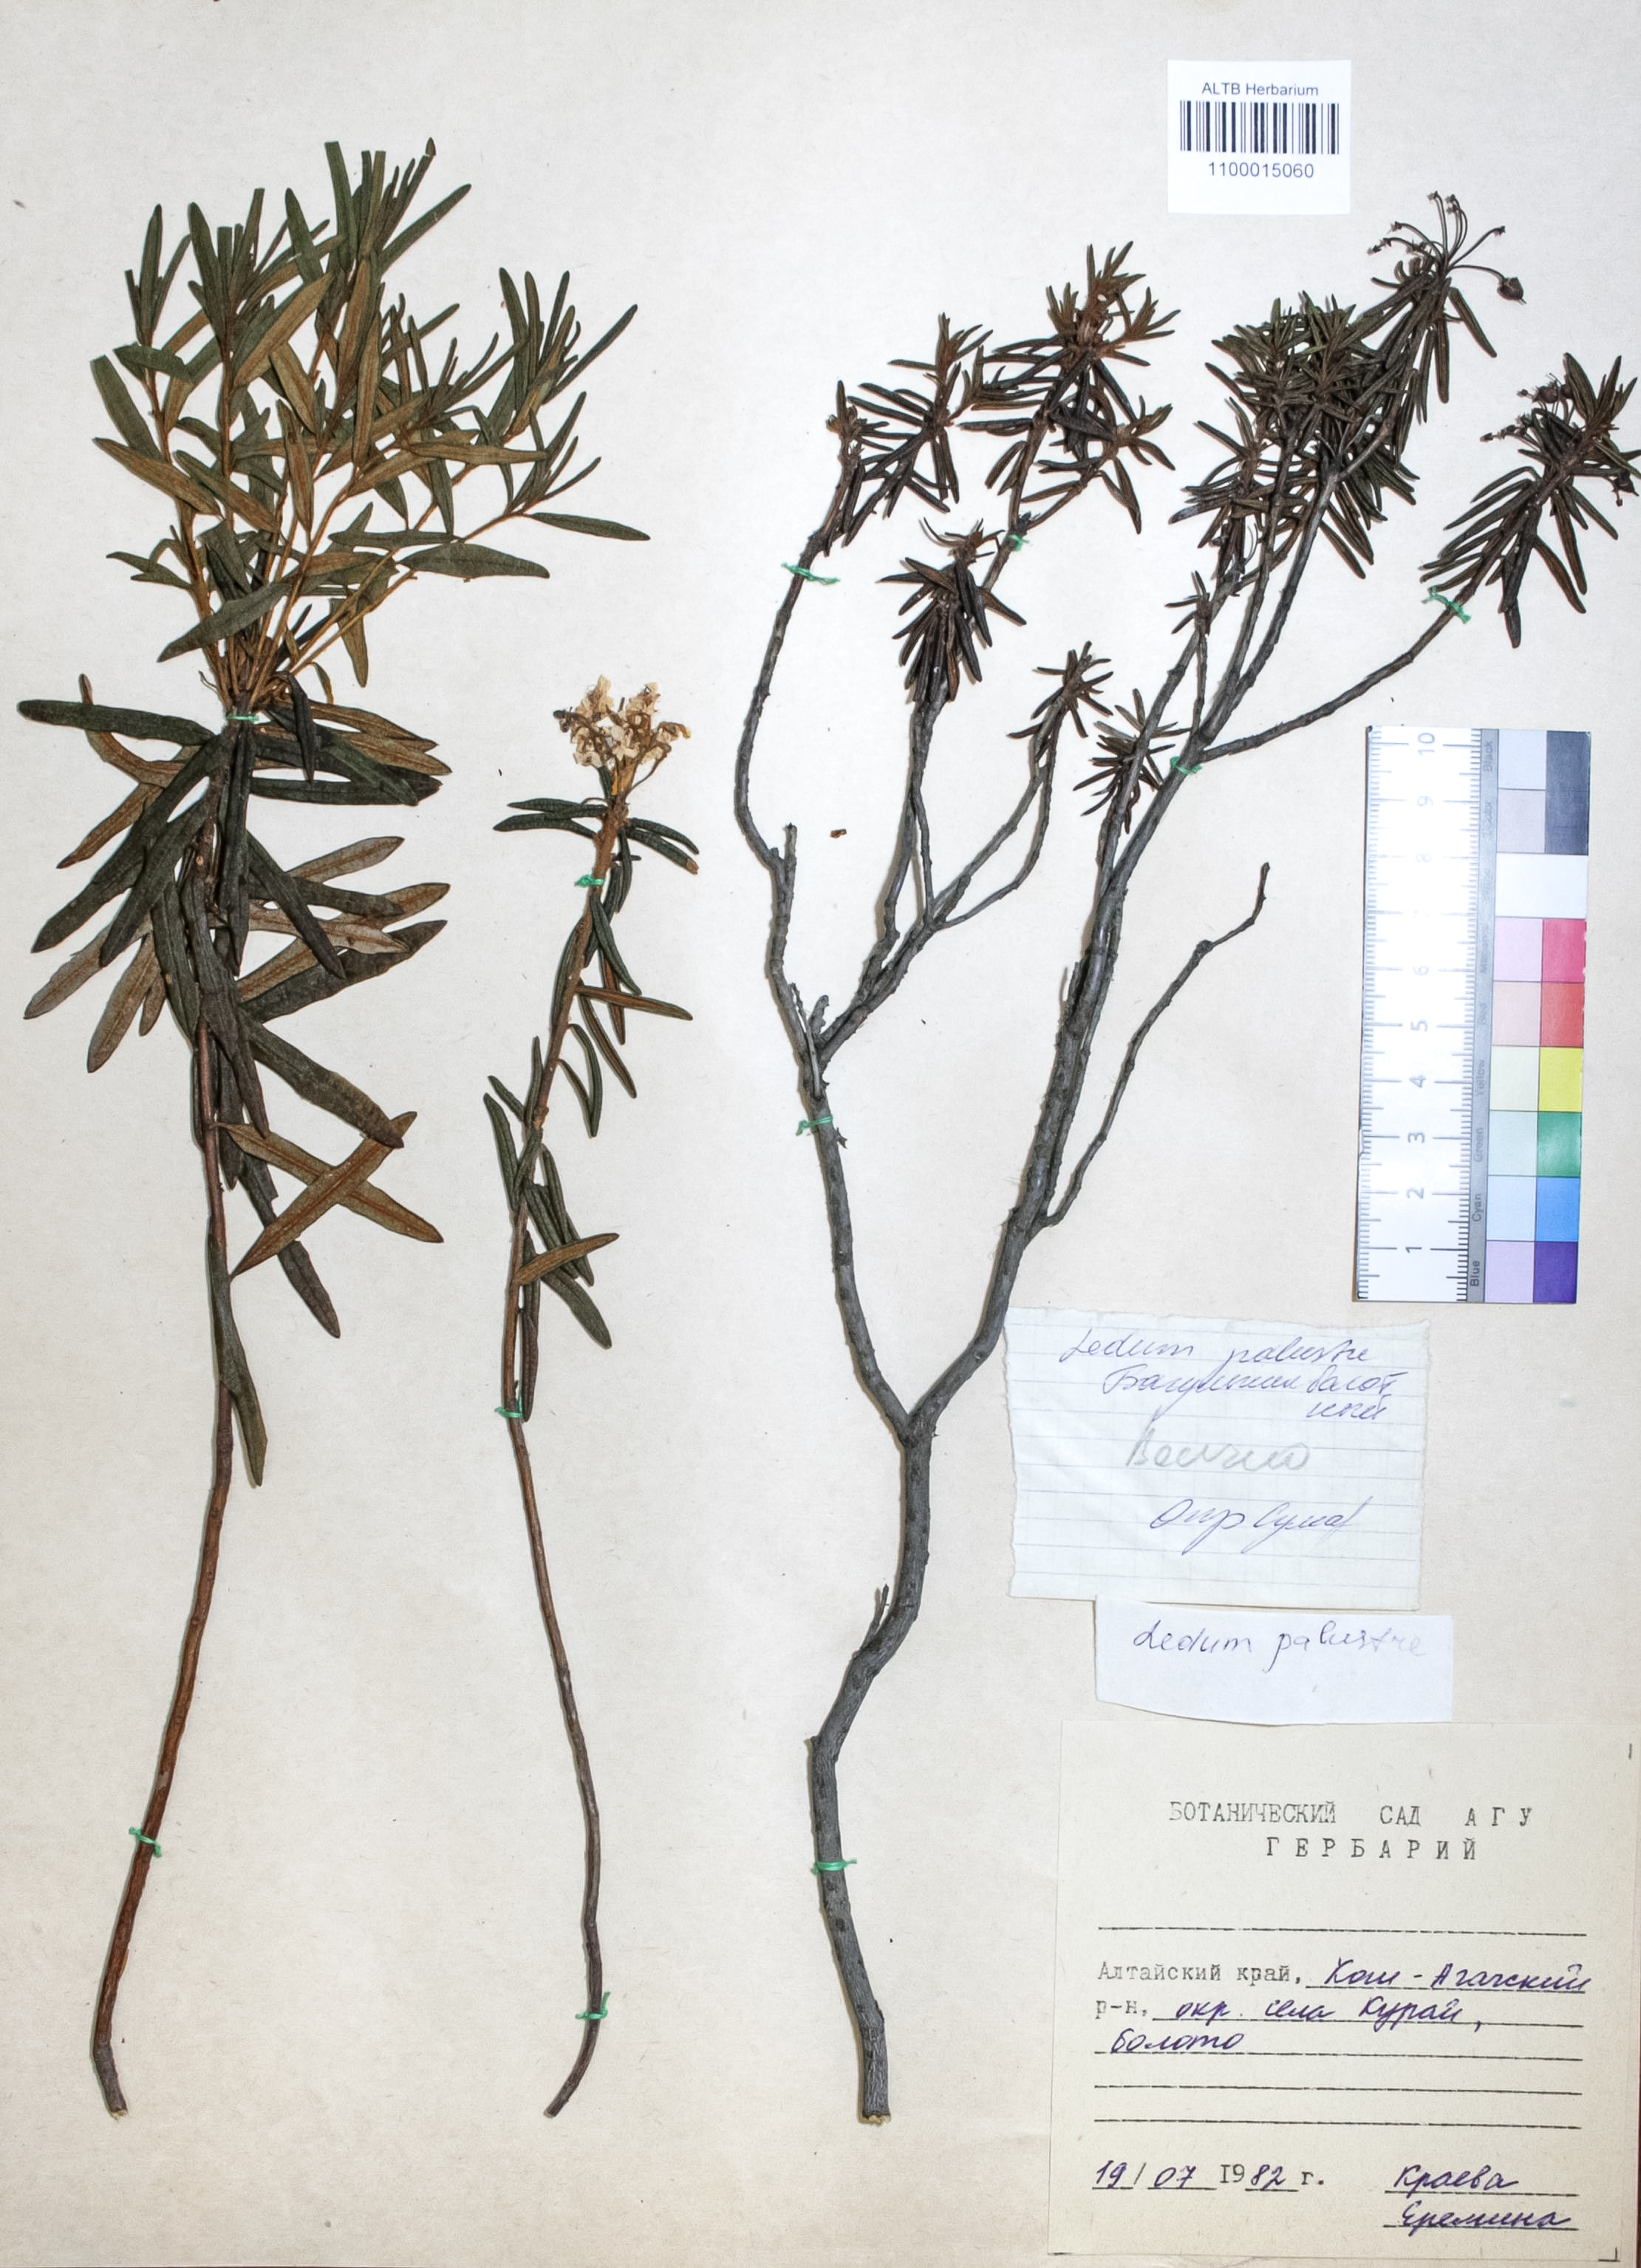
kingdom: Plantae
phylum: Tracheophyta
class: Magnoliopsida
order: Ericales
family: Ericaceae
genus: Rhododendron
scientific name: Rhododendron tomentosum
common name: Marsh labrador tea
